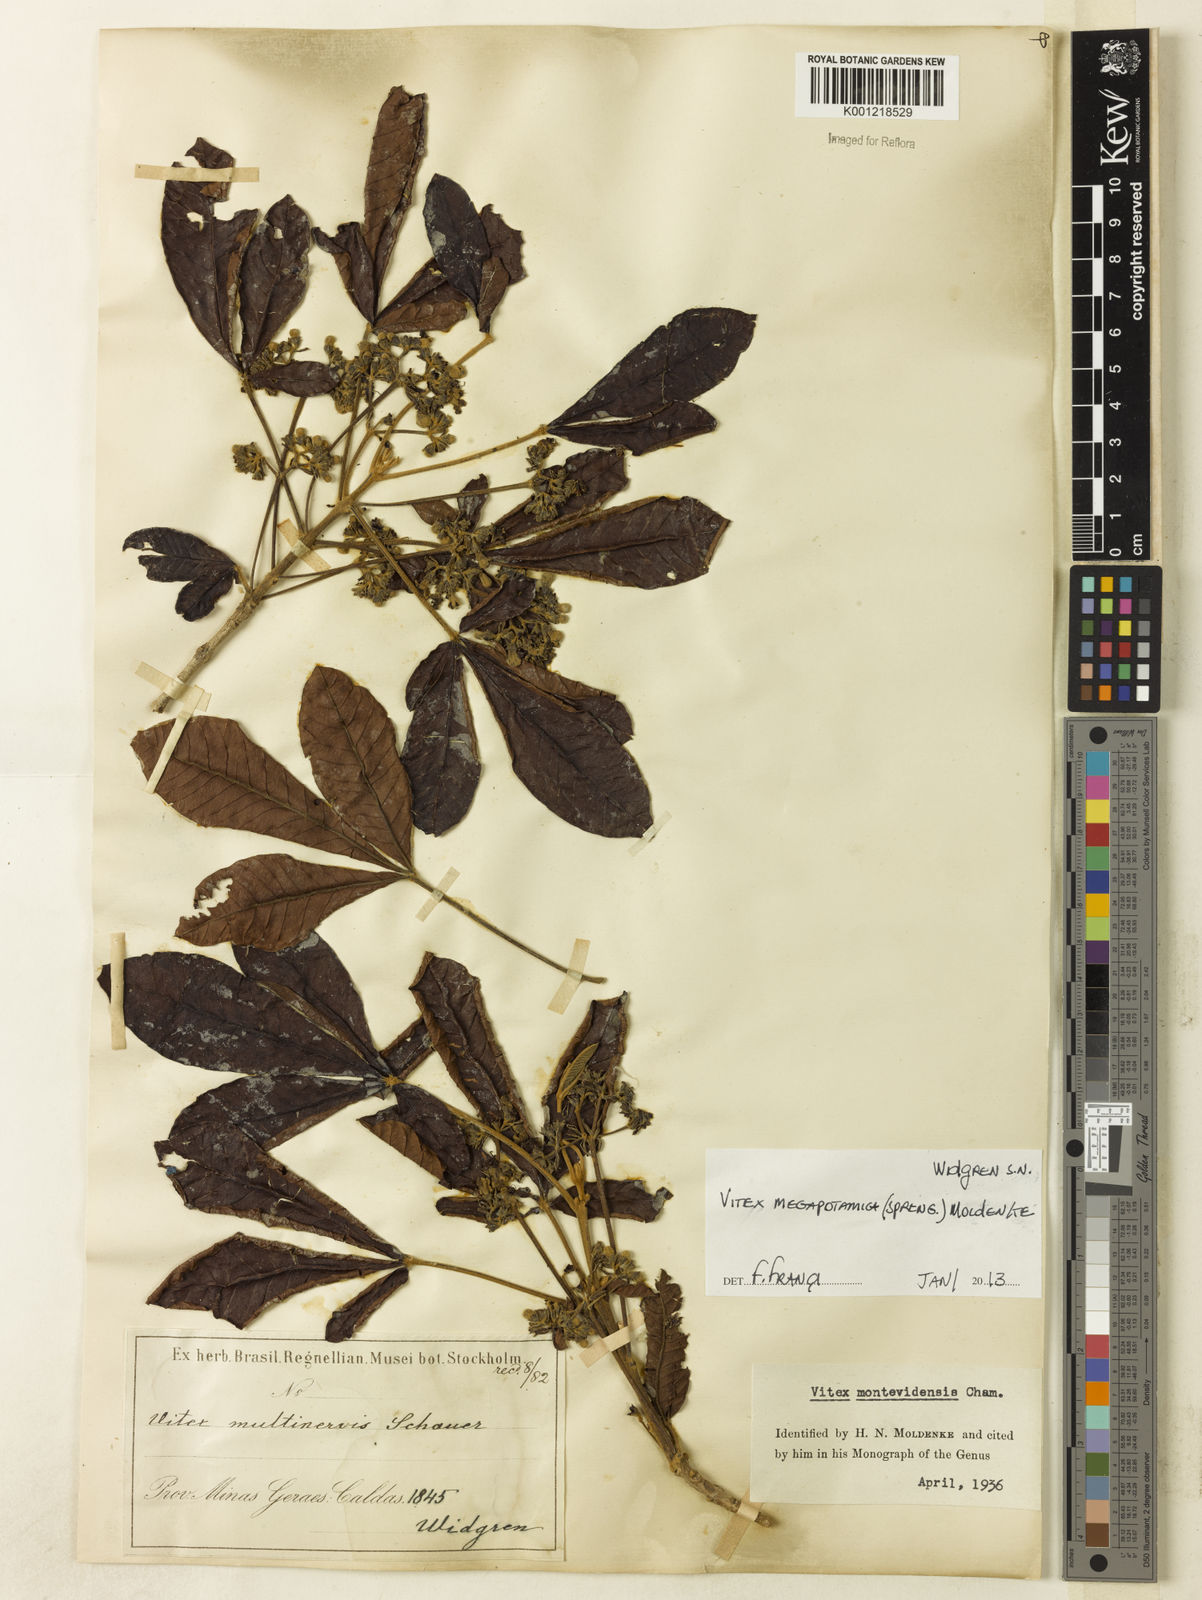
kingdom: Plantae
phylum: Tracheophyta
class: Magnoliopsida
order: Lamiales
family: Lamiaceae
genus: Vitex
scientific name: Vitex megapotamica
